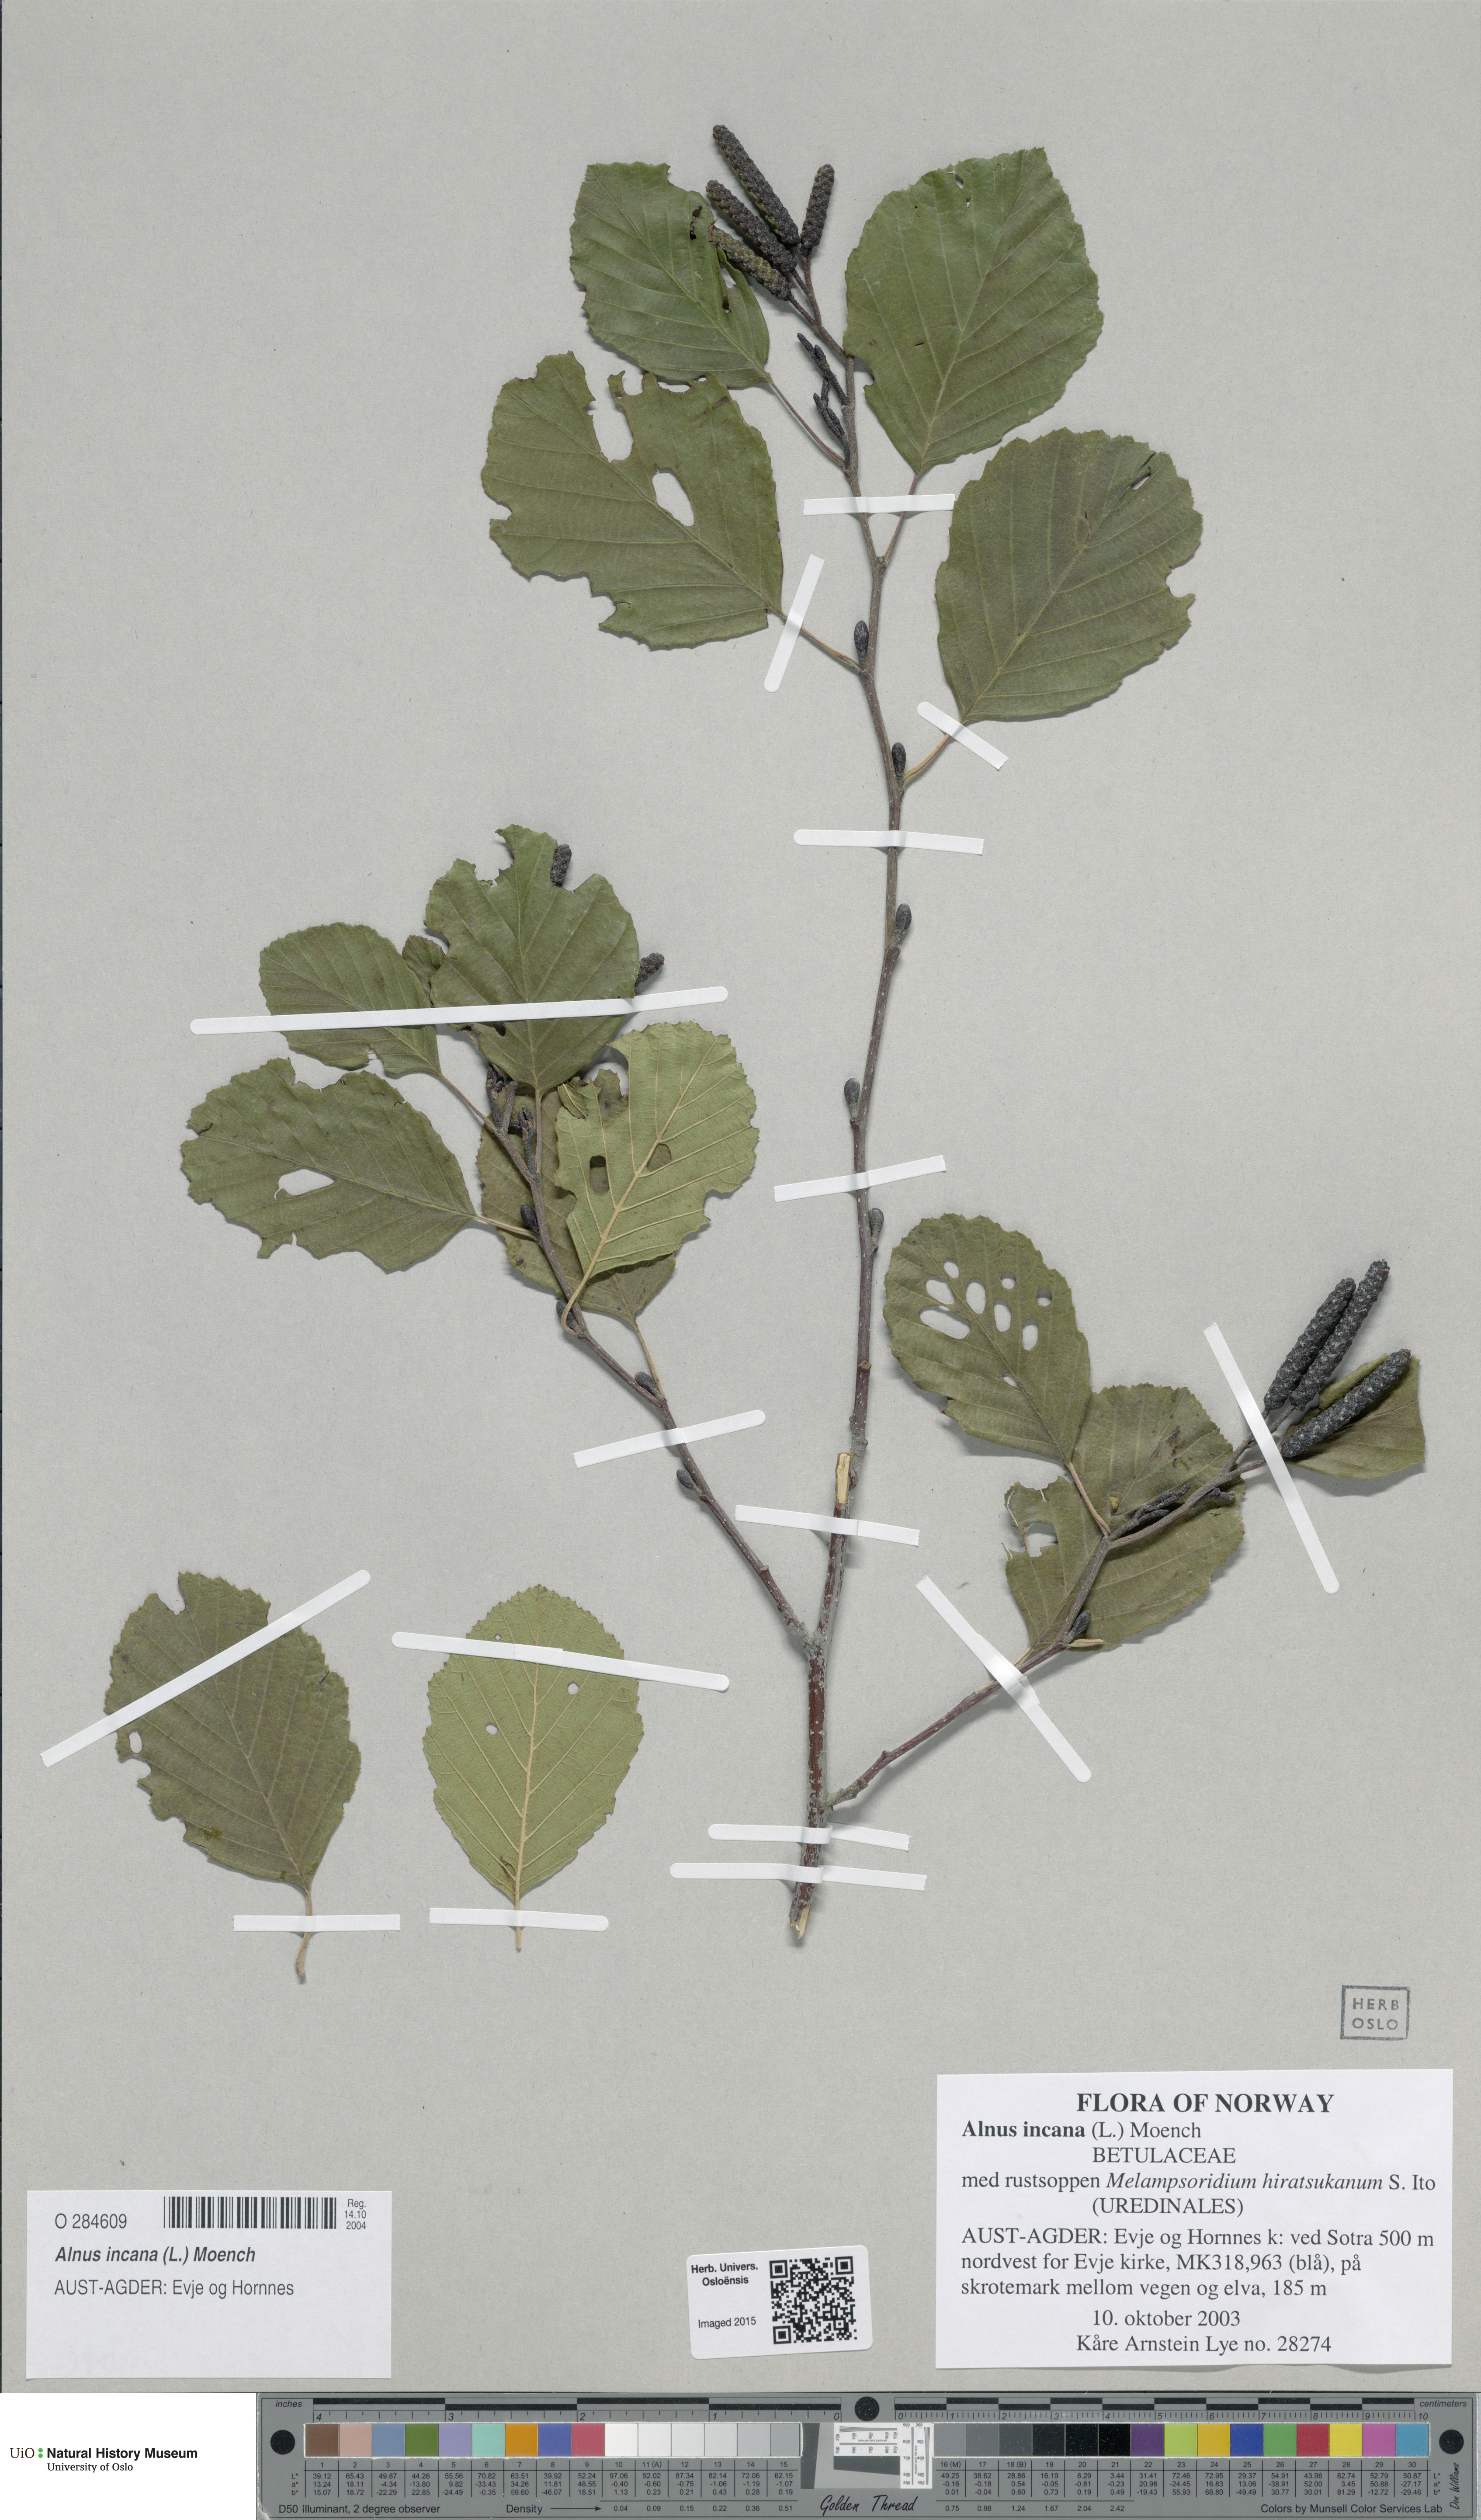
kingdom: Plantae
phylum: Tracheophyta
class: Magnoliopsida
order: Fagales
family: Betulaceae
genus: Alnus
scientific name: Alnus incana
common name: Grey alder
